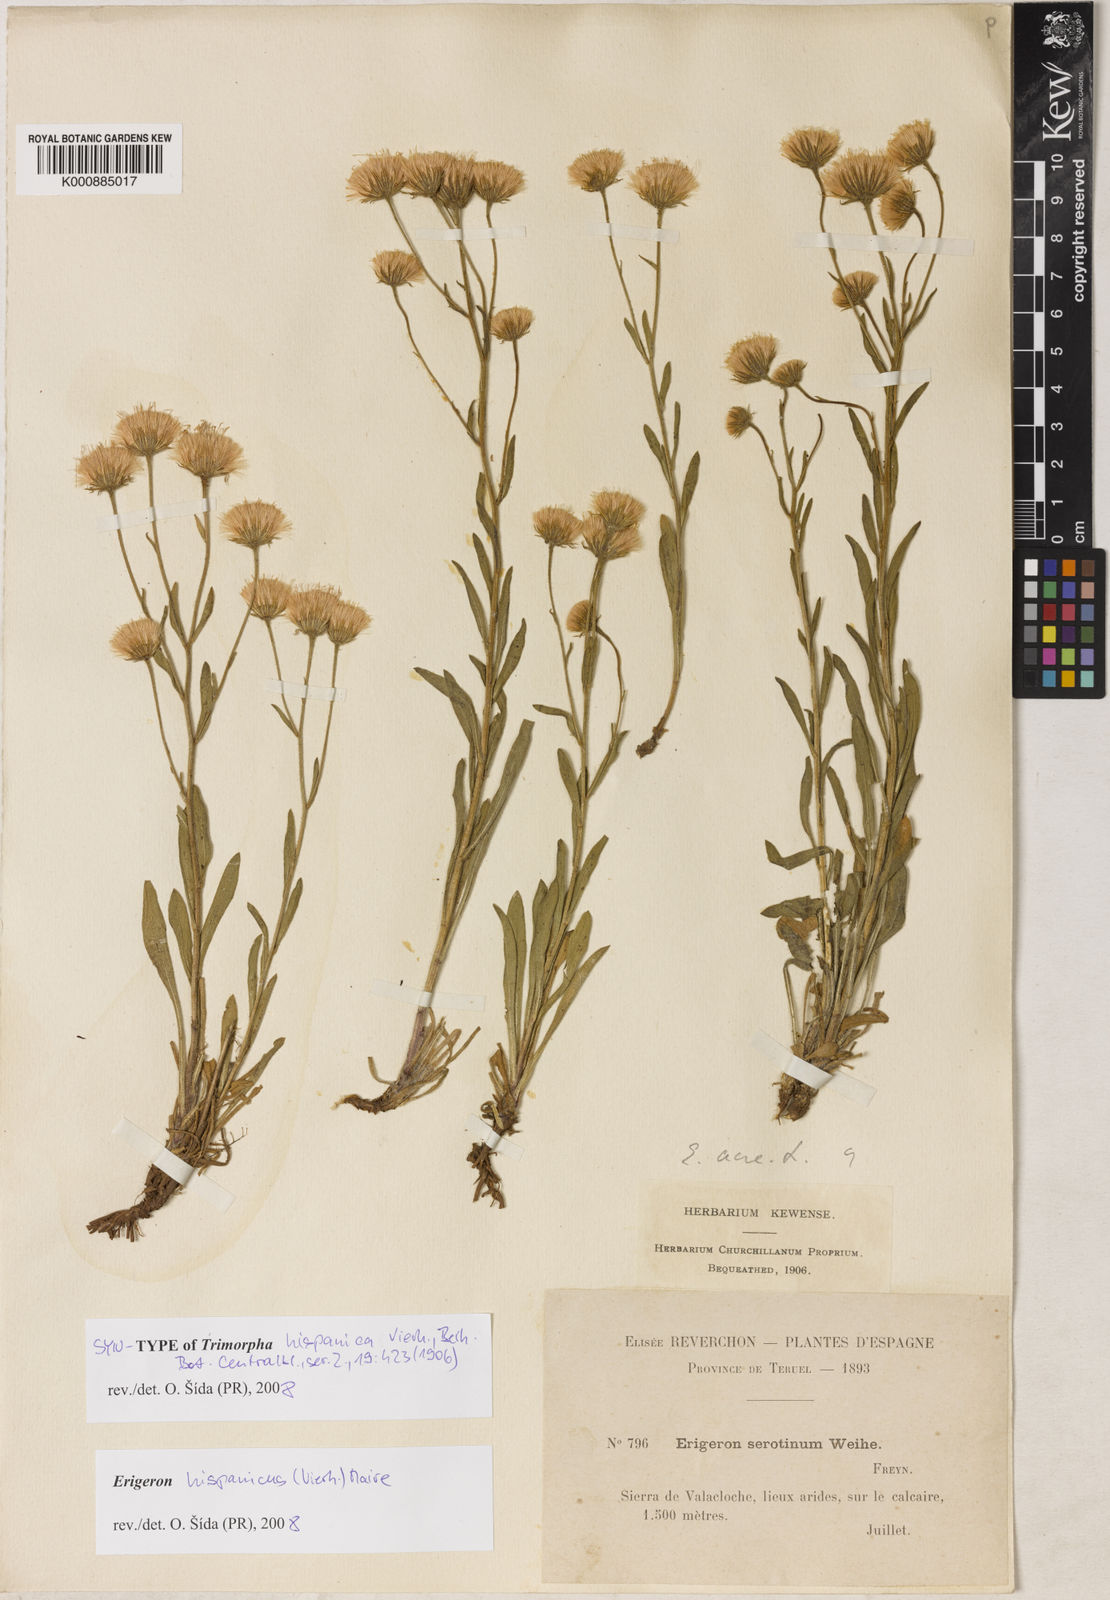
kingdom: Plantae
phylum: Tracheophyta
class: Magnoliopsida
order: Asterales
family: Asteraceae
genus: Erigeron
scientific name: Erigeron hispanicus
